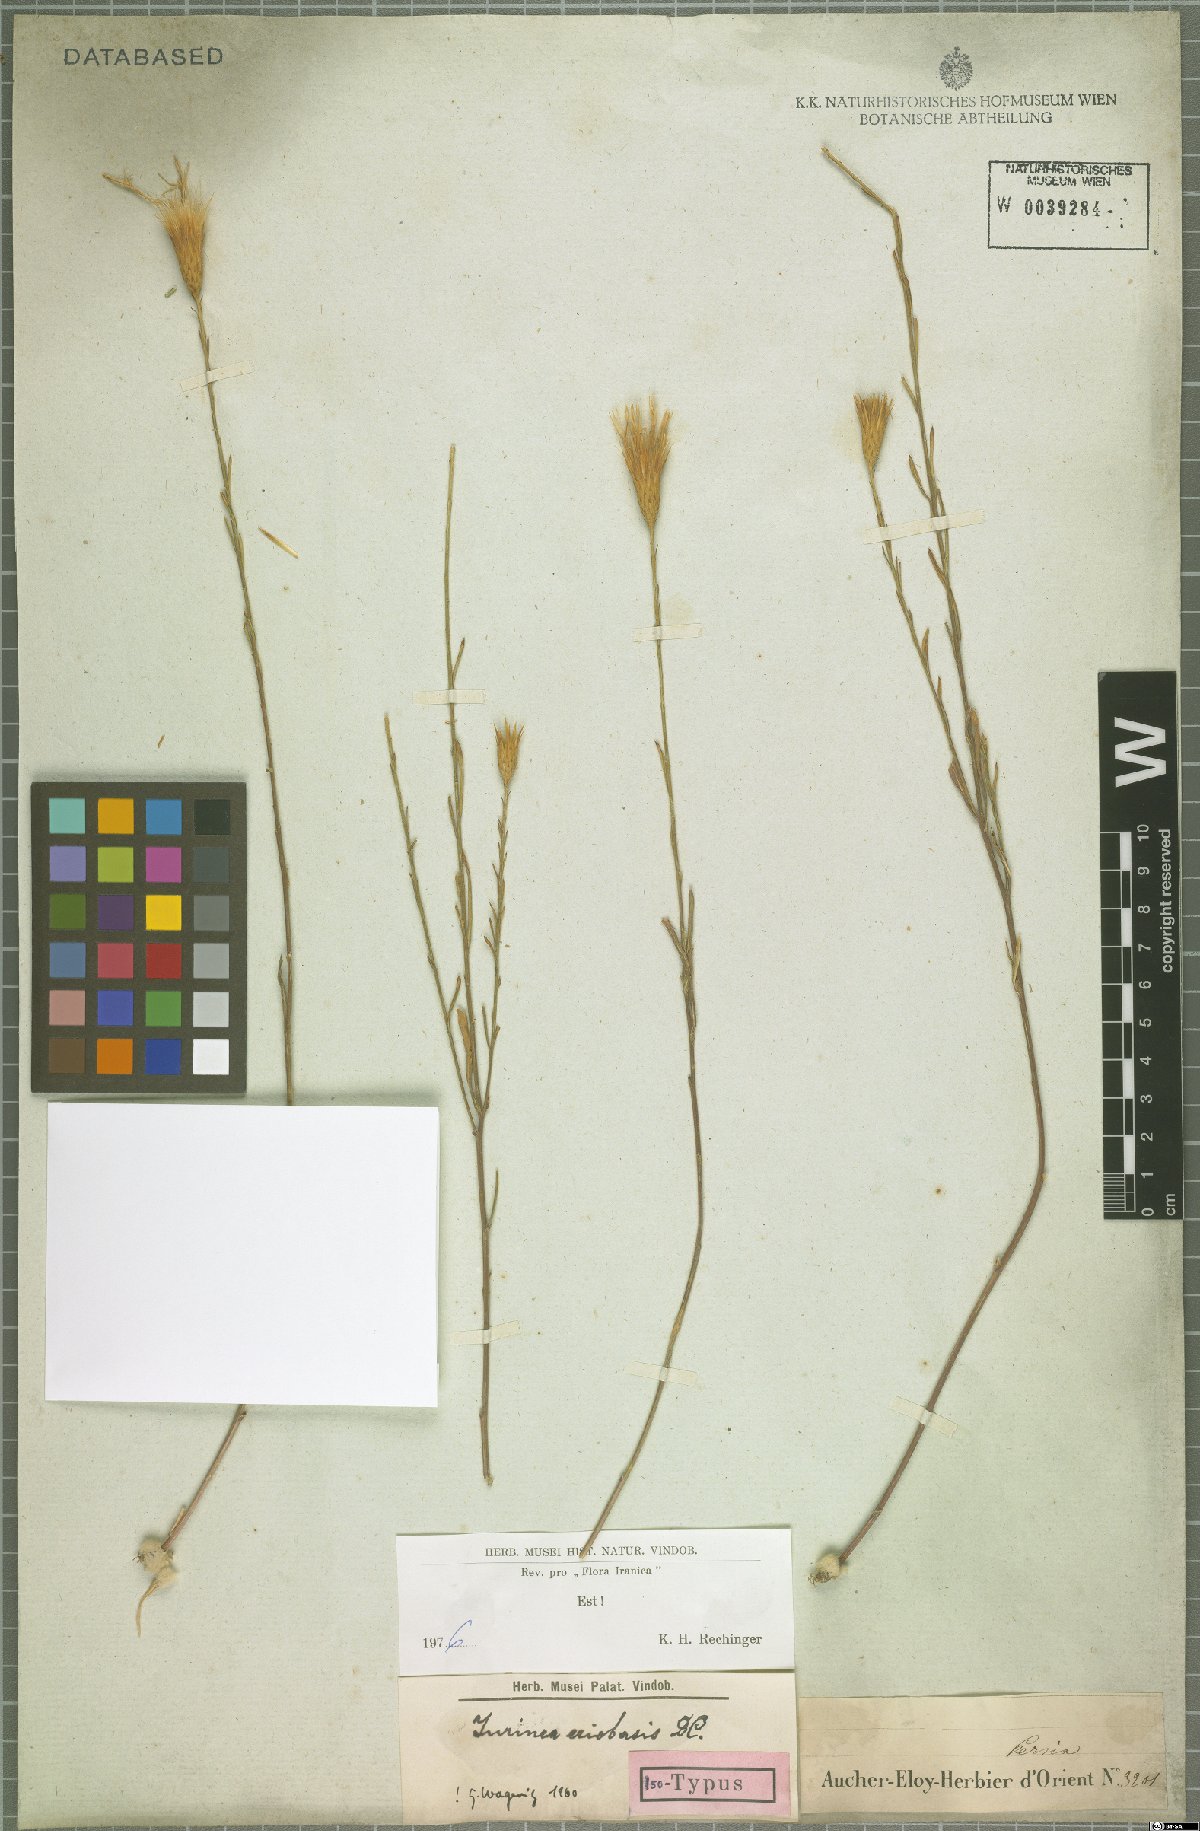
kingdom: Plantae
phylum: Tracheophyta
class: Magnoliopsida
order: Asterales
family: Asteraceae
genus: Jurinea
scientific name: Jurinea eriobasis
